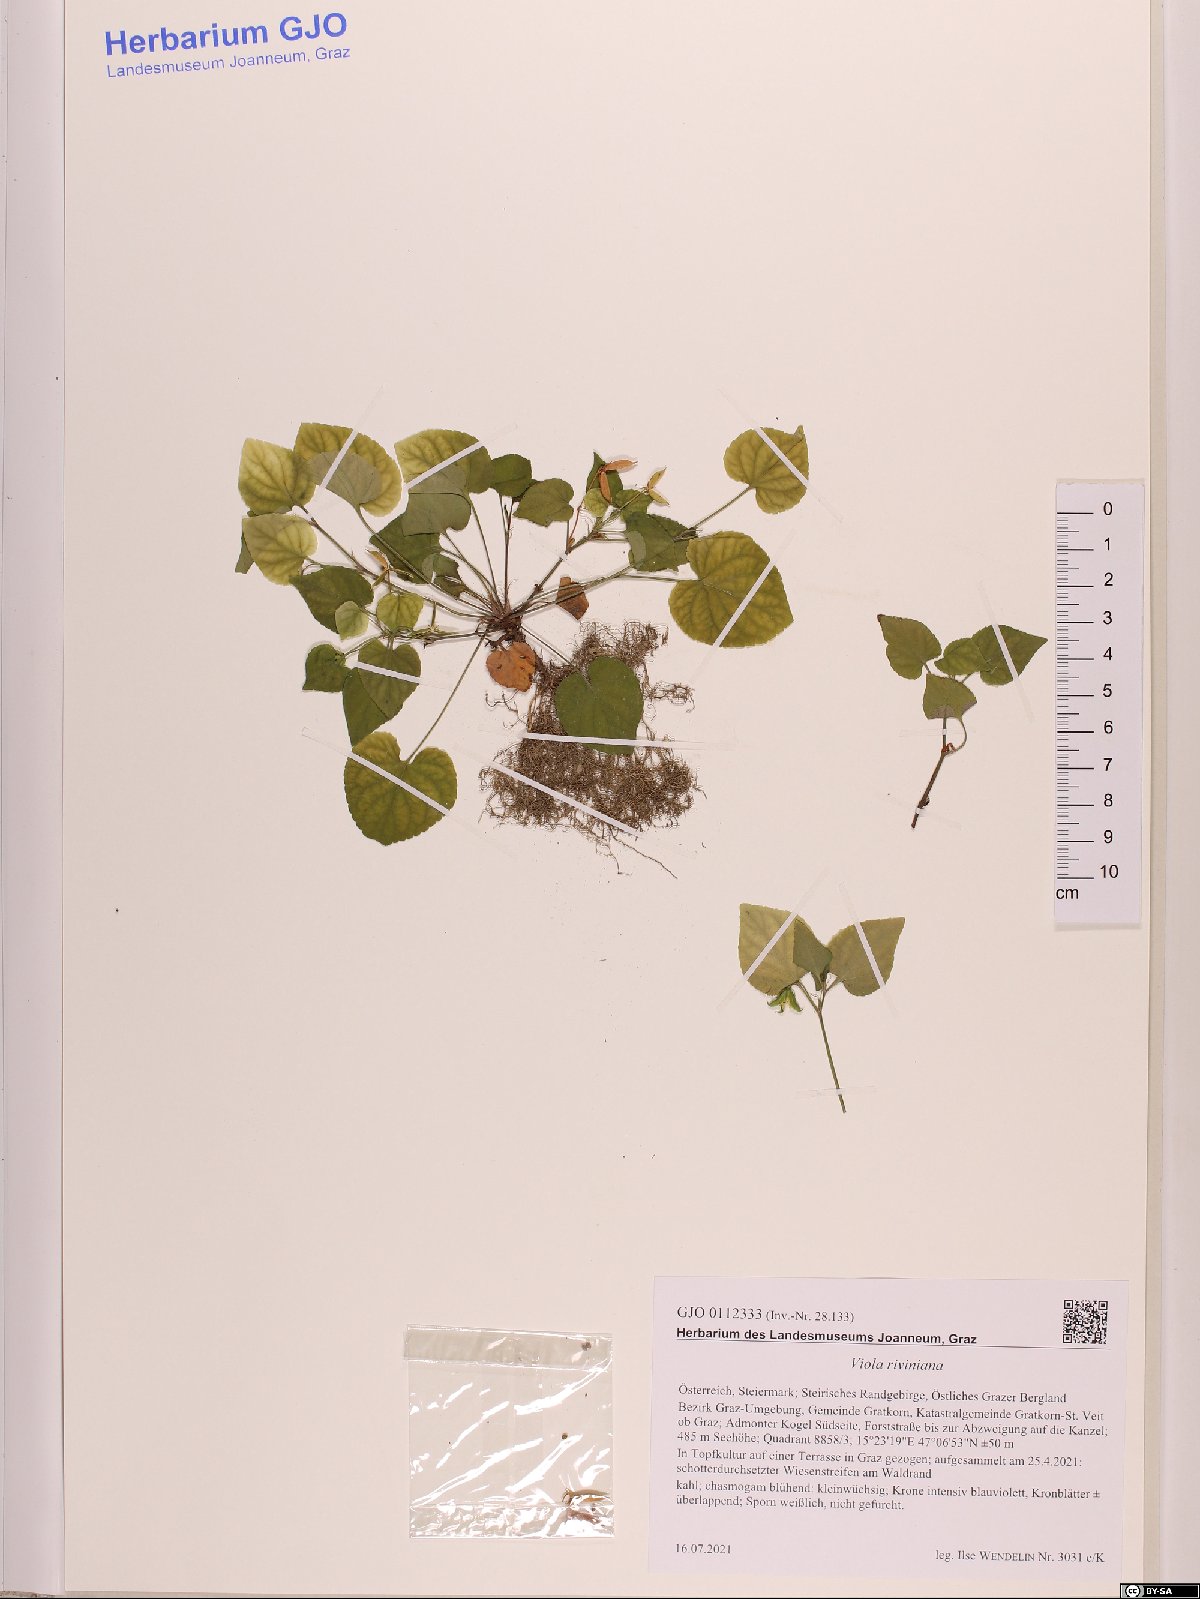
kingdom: Plantae
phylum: Tracheophyta
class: Magnoliopsida
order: Malpighiales
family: Violaceae
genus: Viola
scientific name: Viola riviniana
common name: Common dog-violet
